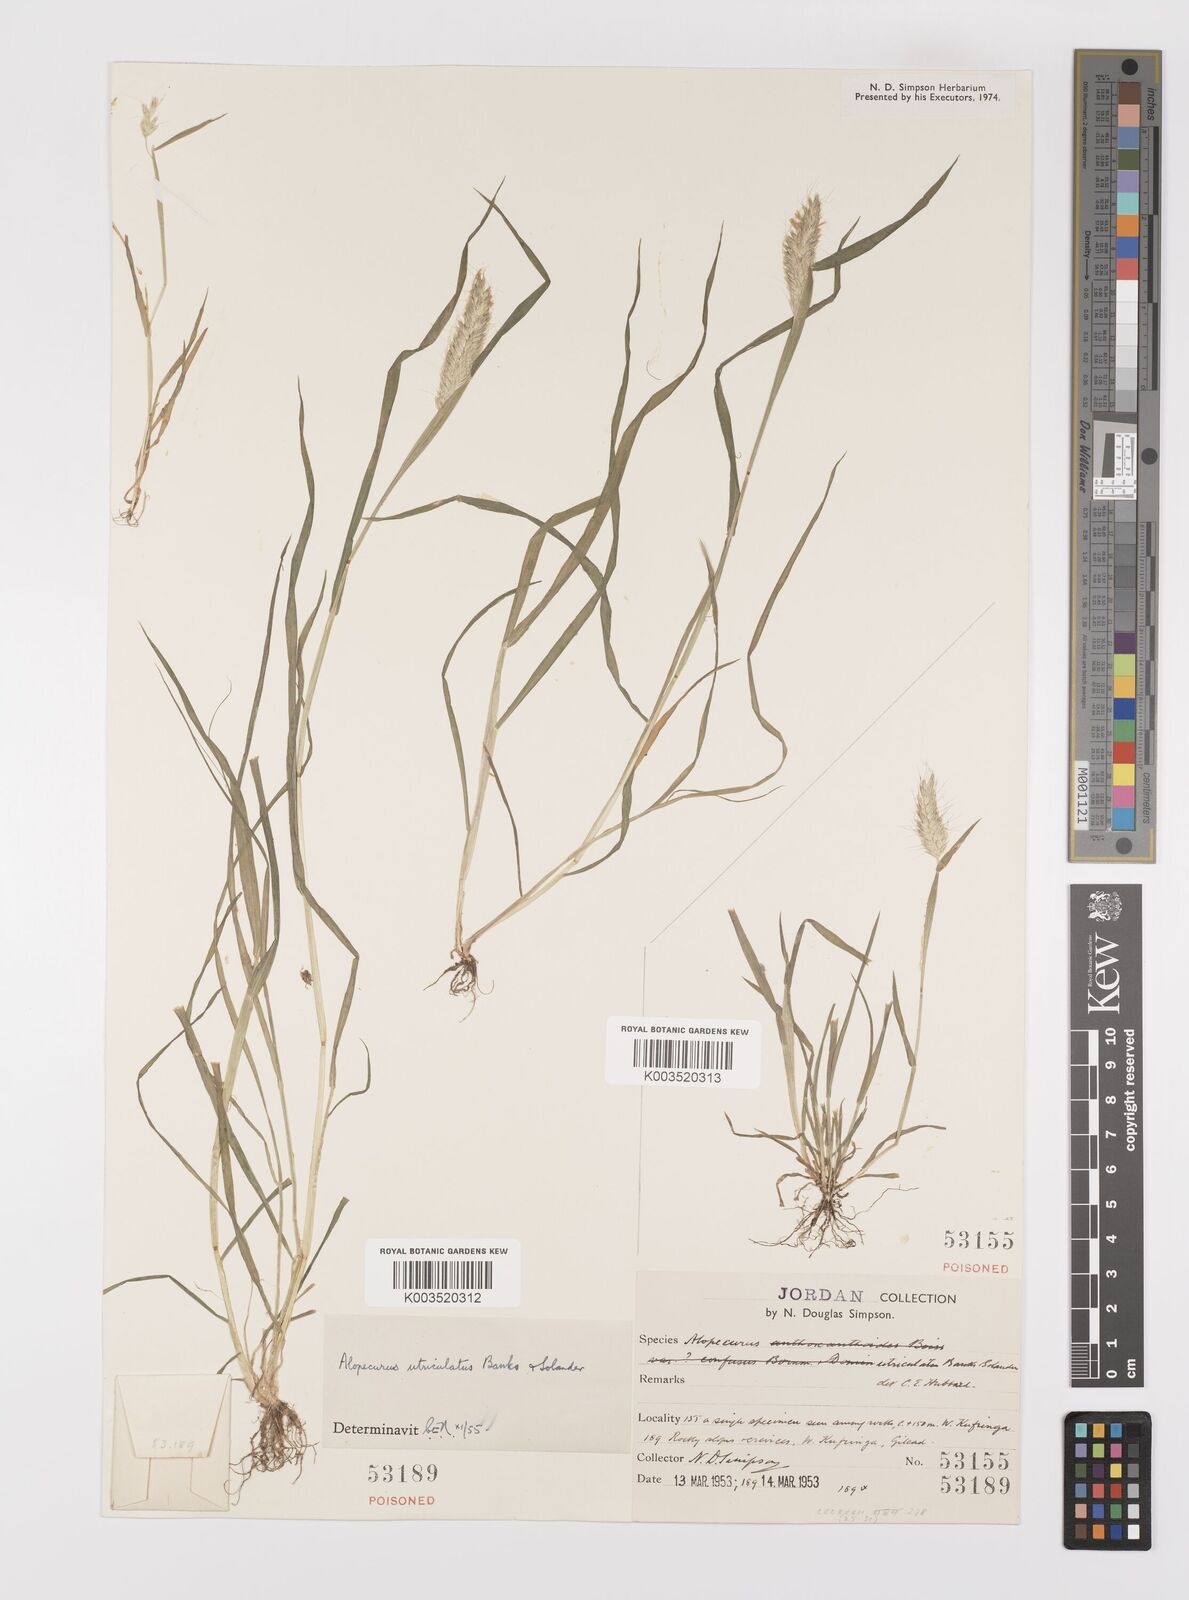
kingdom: Plantae
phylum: Tracheophyta
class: Liliopsida
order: Poales
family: Poaceae
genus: Alopecurus
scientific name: Alopecurus utriculatus
